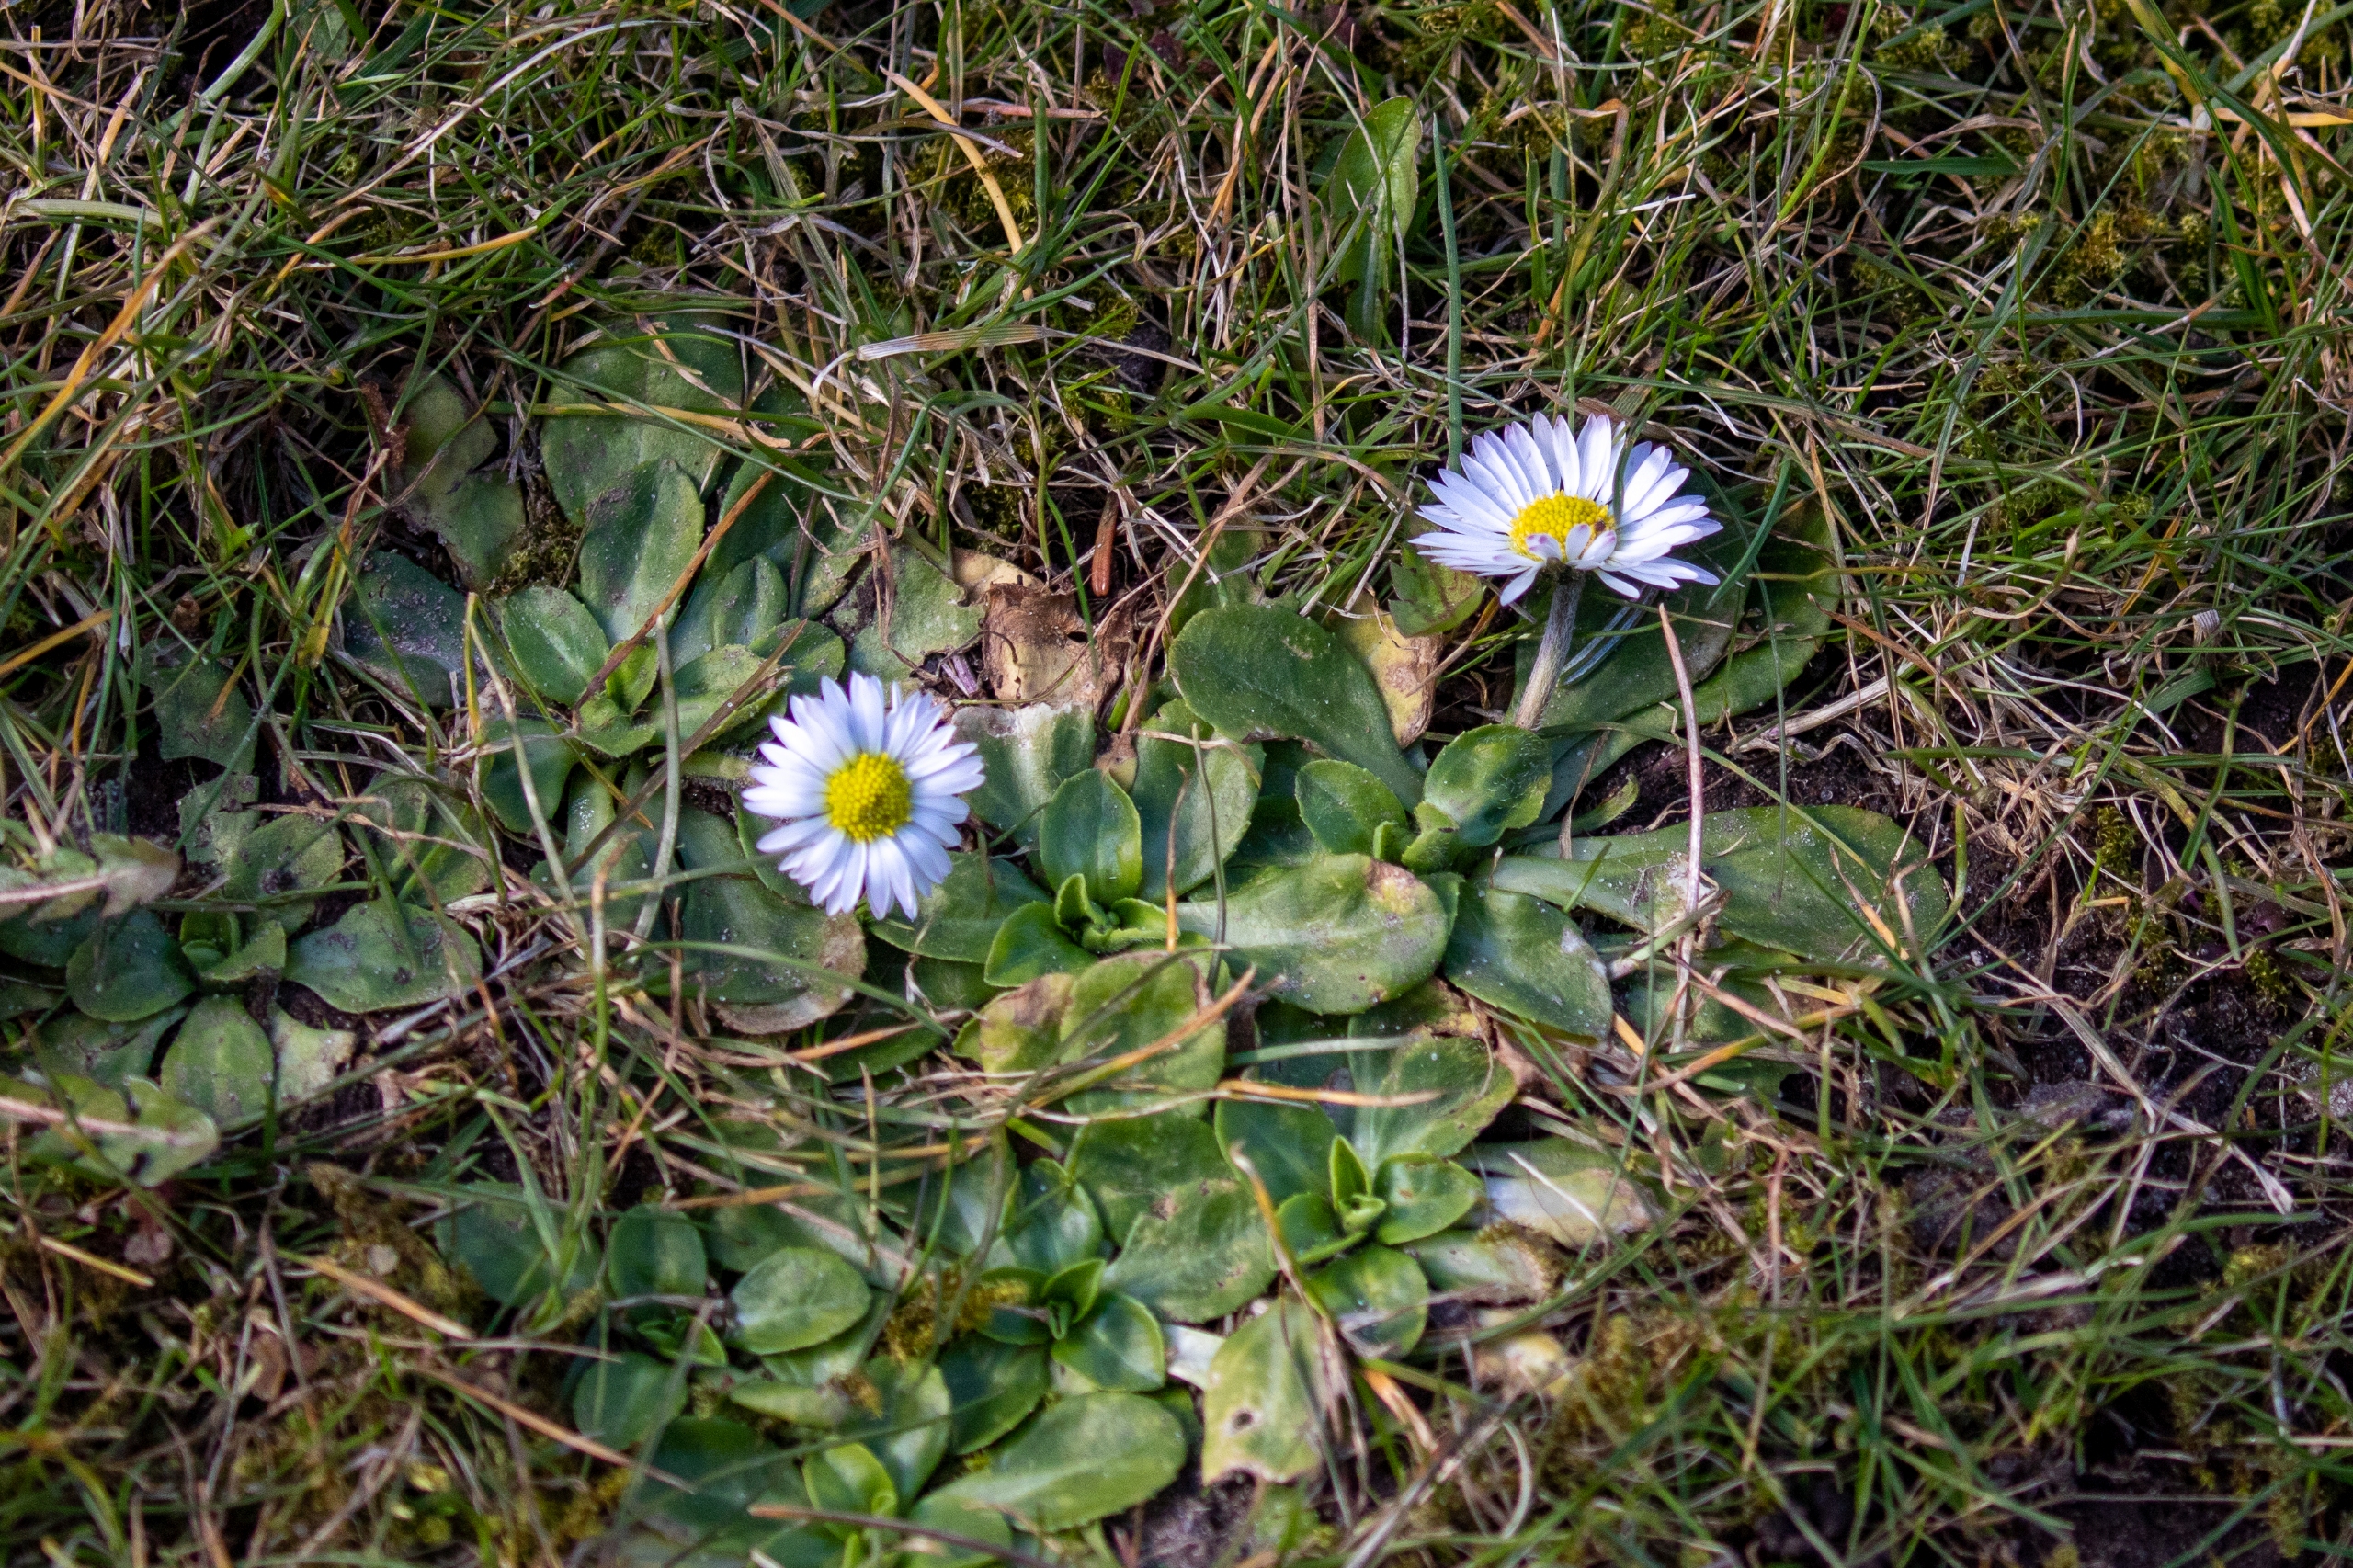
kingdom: Plantae
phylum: Tracheophyta
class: Magnoliopsida
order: Asterales
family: Asteraceae
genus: Bellis
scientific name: Bellis perennis
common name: Tusindfryd
